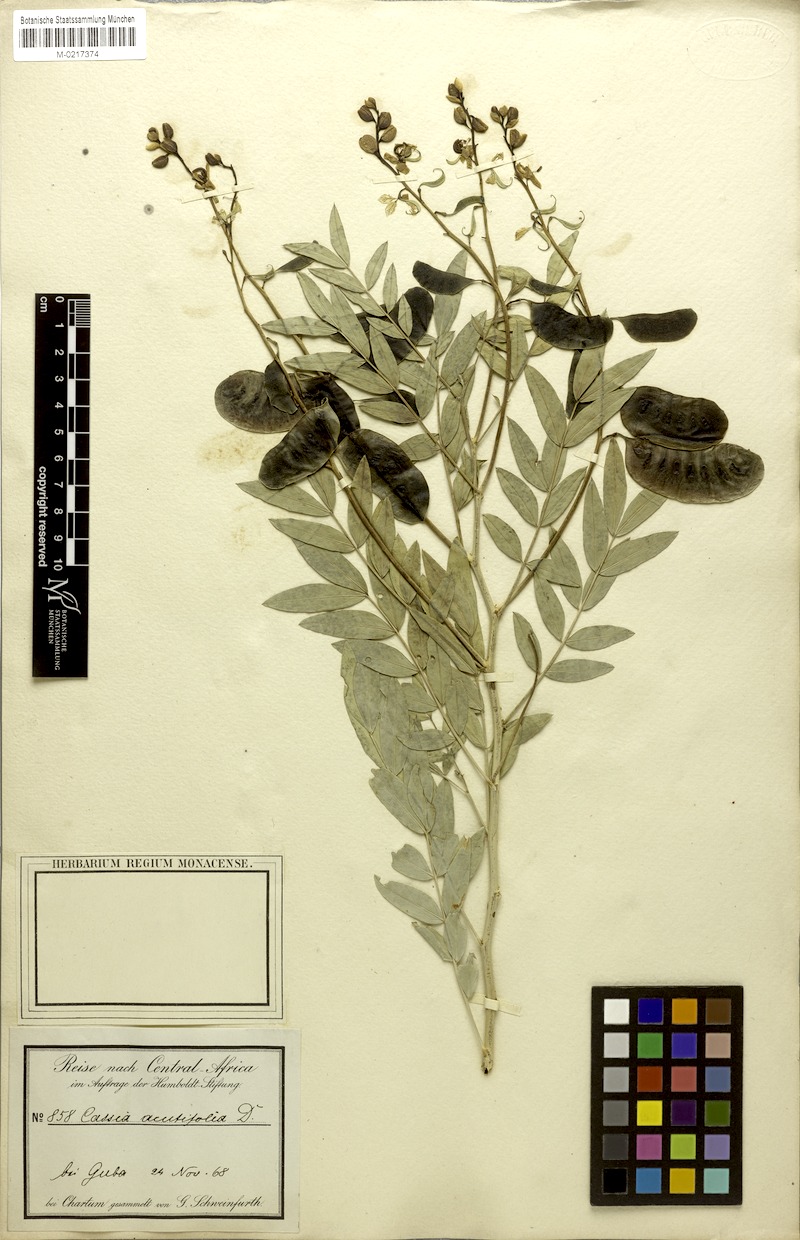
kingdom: Plantae
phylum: Tracheophyta
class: Magnoliopsida
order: Fabales
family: Fabaceae
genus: Senna
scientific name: Senna alexandrina
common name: True senna
